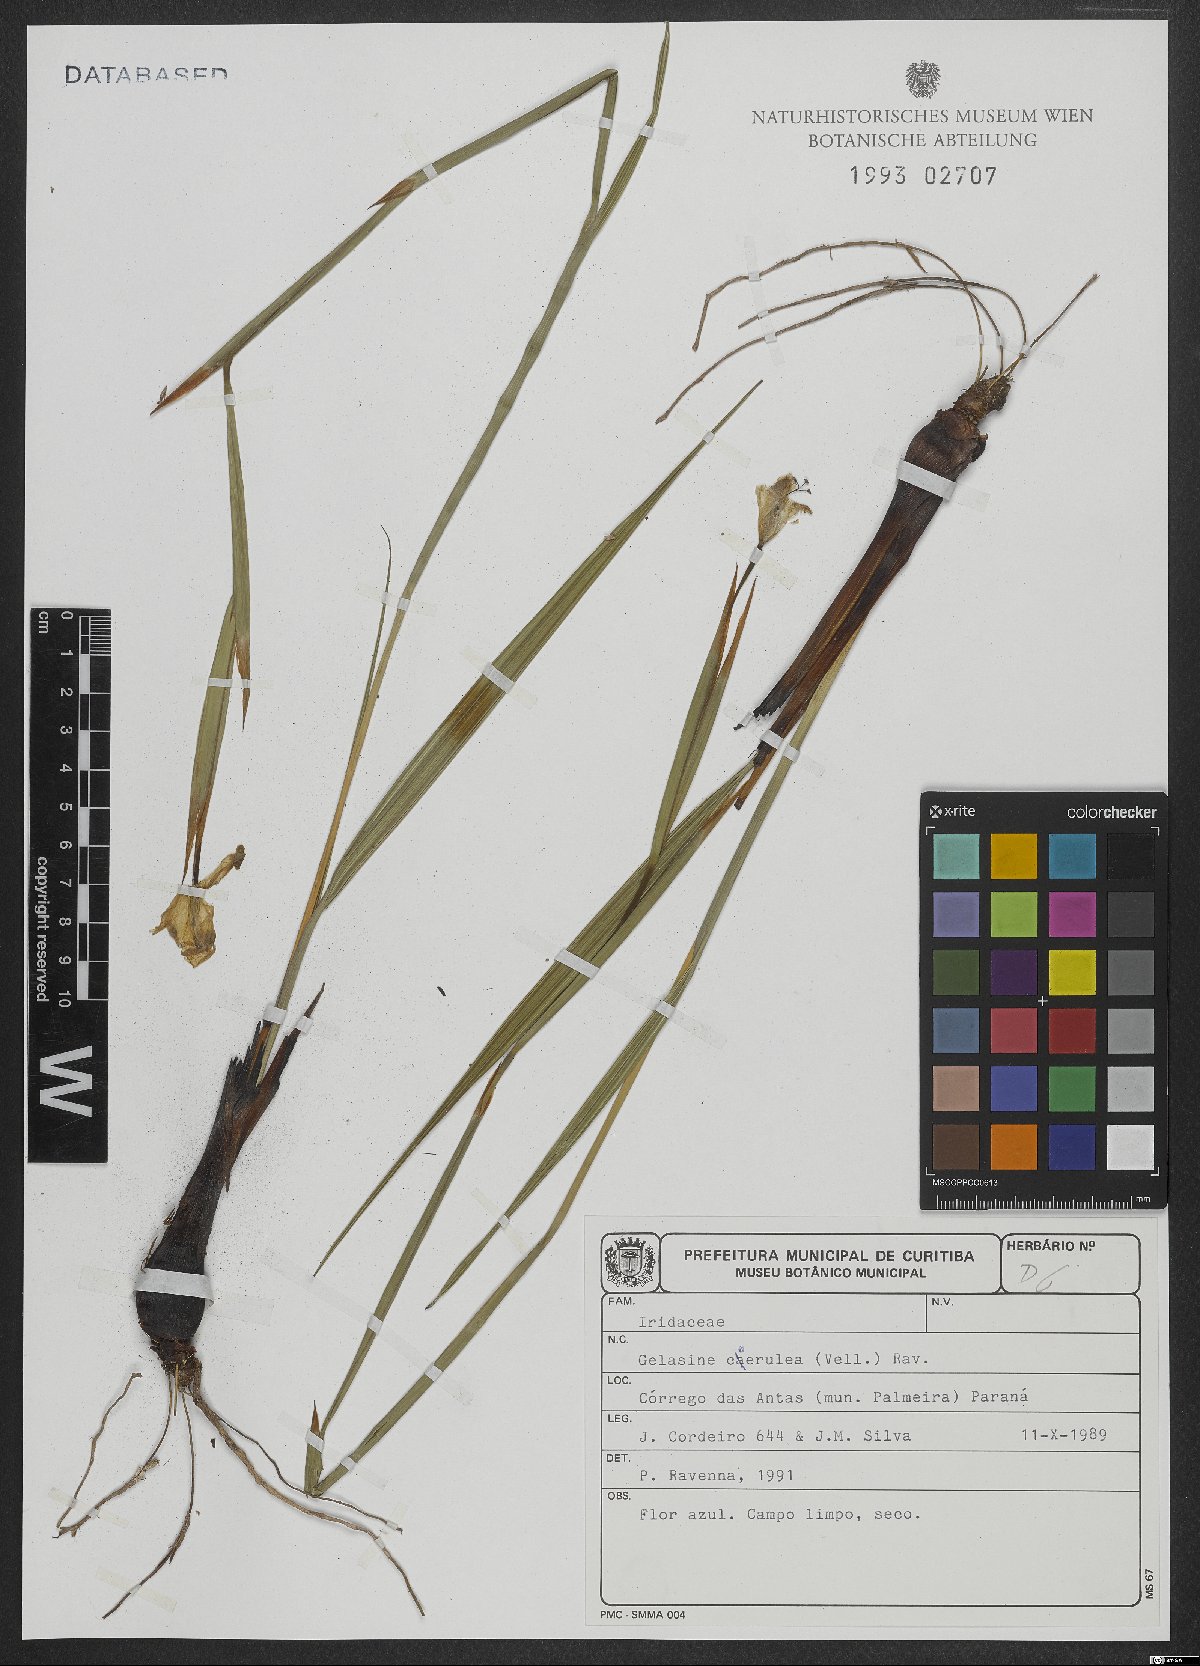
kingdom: Plantae
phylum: Tracheophyta
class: Liliopsida
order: Asparagales
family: Iridaceae
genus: Gelasine
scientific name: Gelasine coerulea
